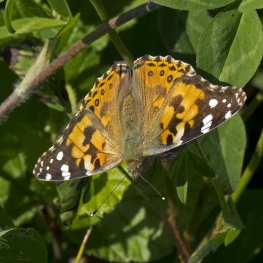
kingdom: Animalia
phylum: Arthropoda
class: Insecta
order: Lepidoptera
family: Nymphalidae
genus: Vanessa
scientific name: Vanessa cardui
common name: Painted Lady
